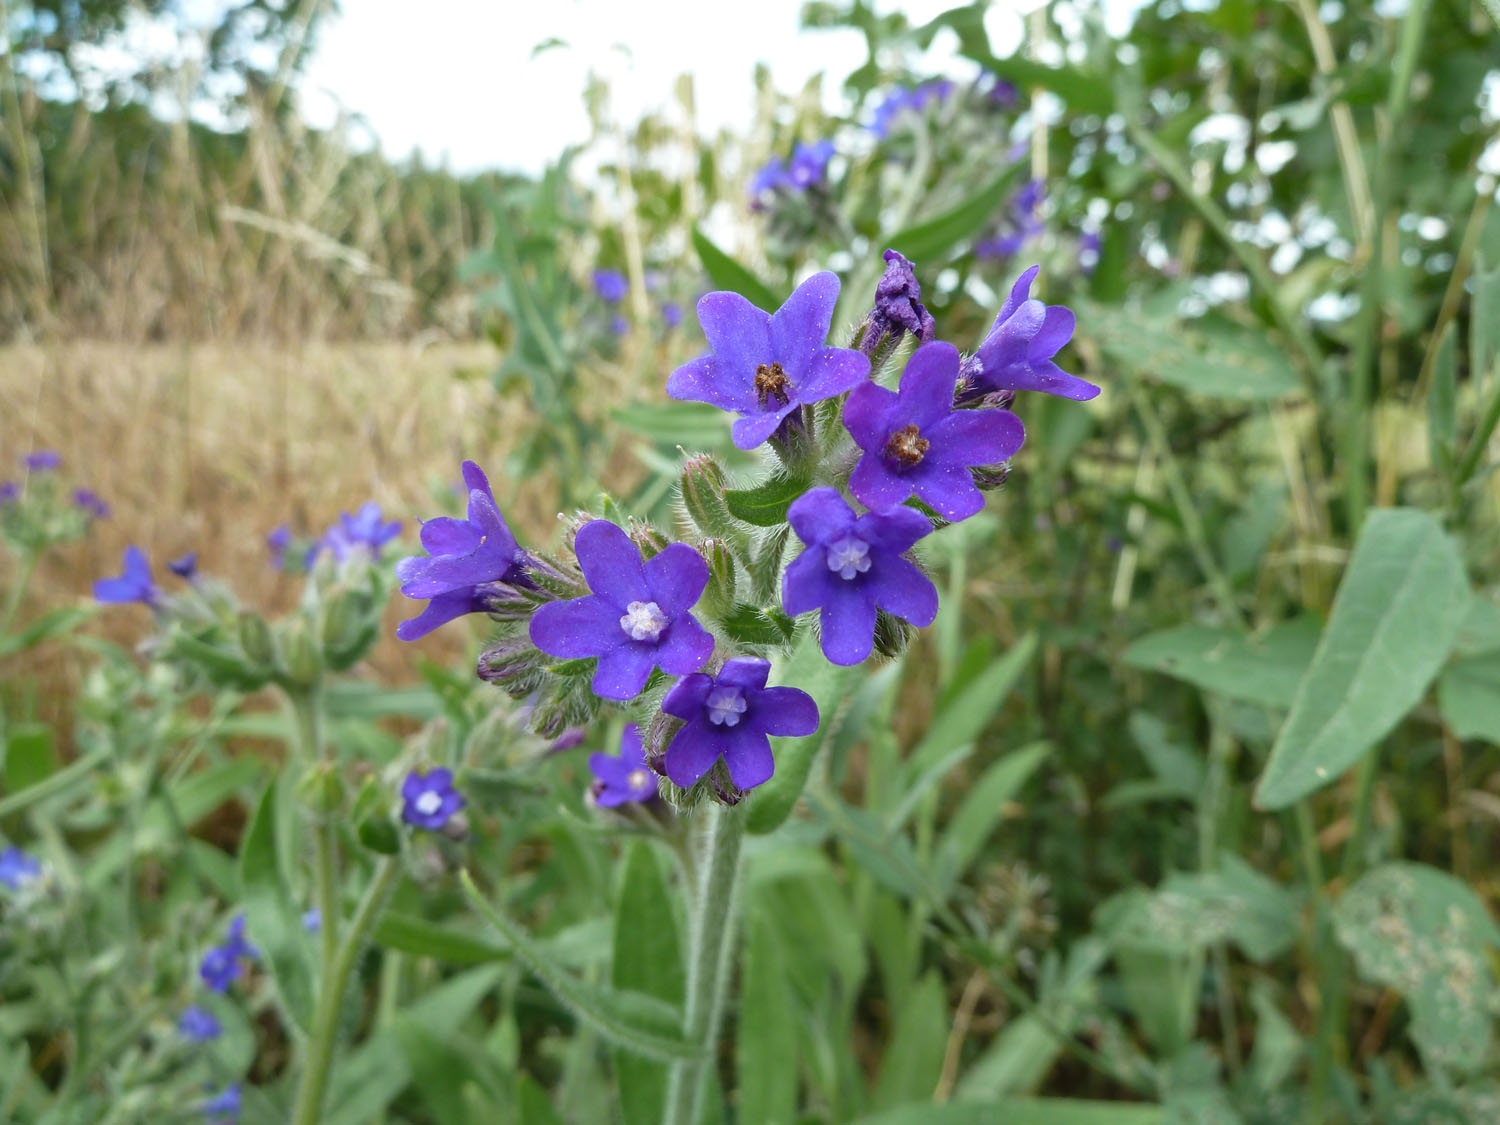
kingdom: Plantae
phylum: Tracheophyta
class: Magnoliopsida
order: Boraginales
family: Boraginaceae
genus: Anchusa
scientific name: Anchusa officinalis
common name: Alkanet
